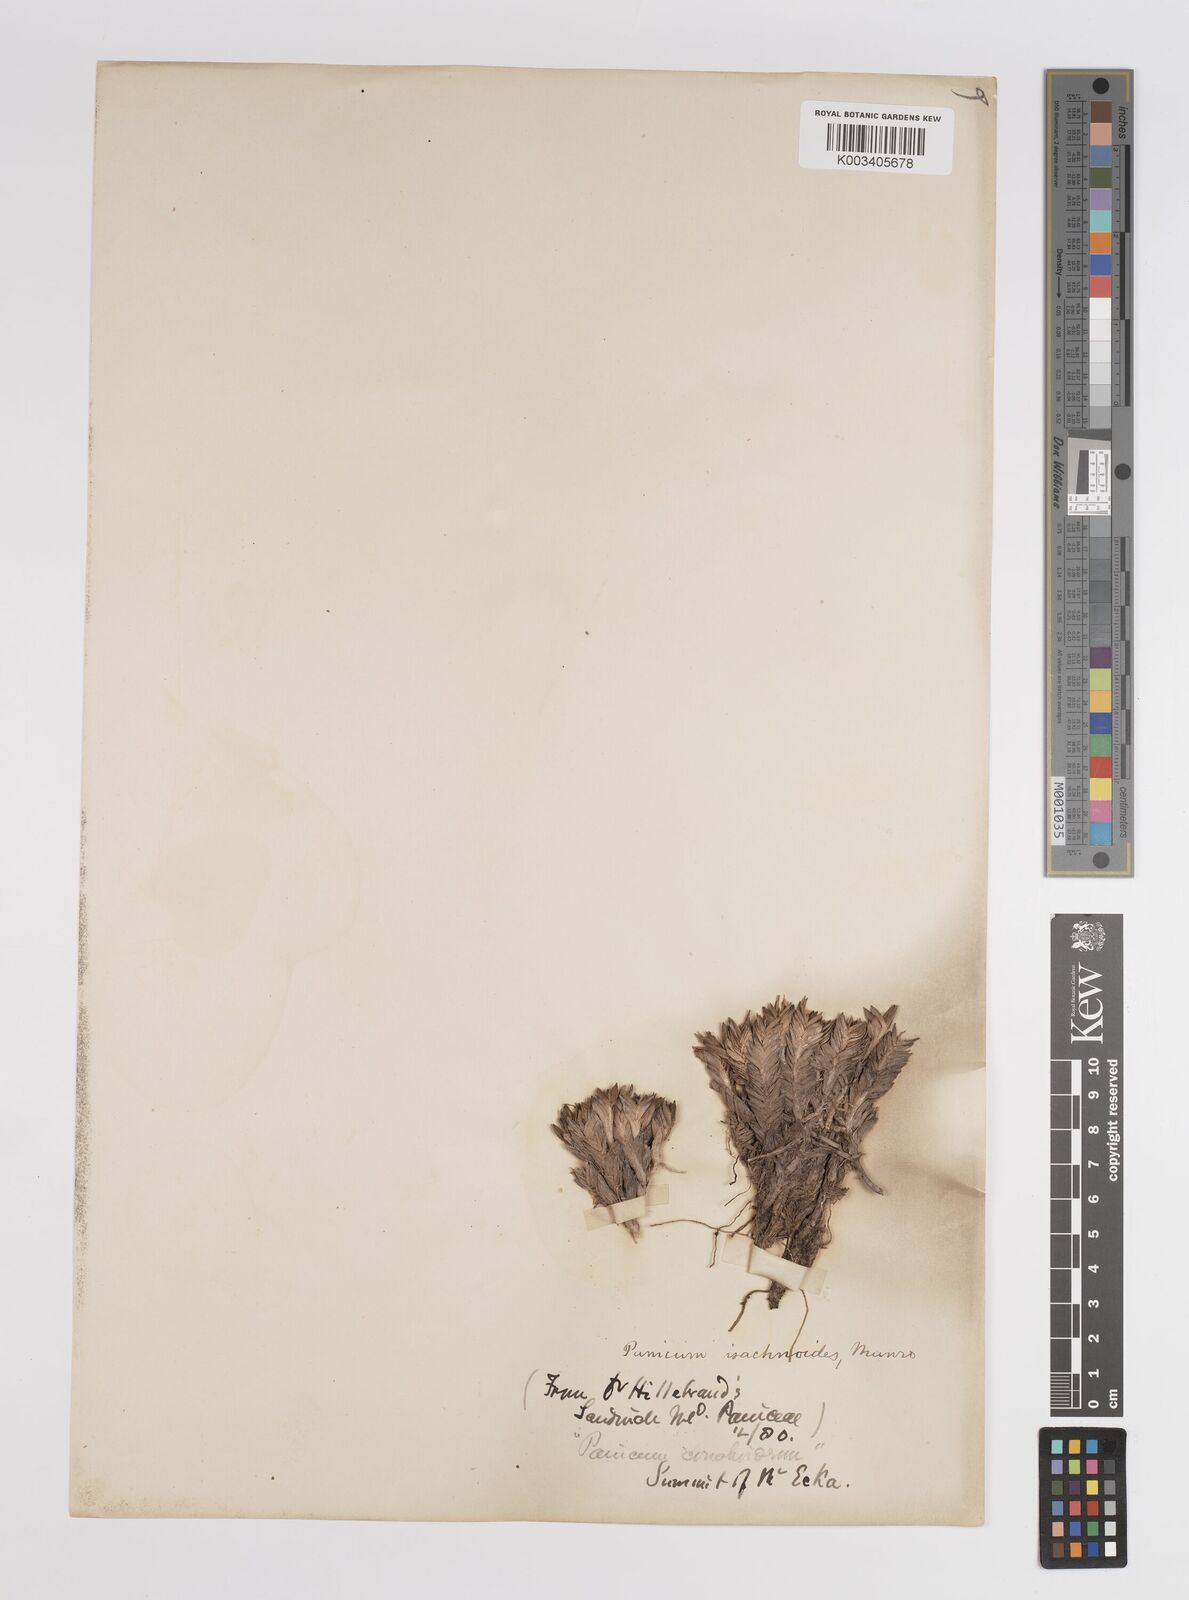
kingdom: Plantae
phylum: Tracheophyta
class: Liliopsida
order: Poales
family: Poaceae
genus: Panicum
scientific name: Panicum
